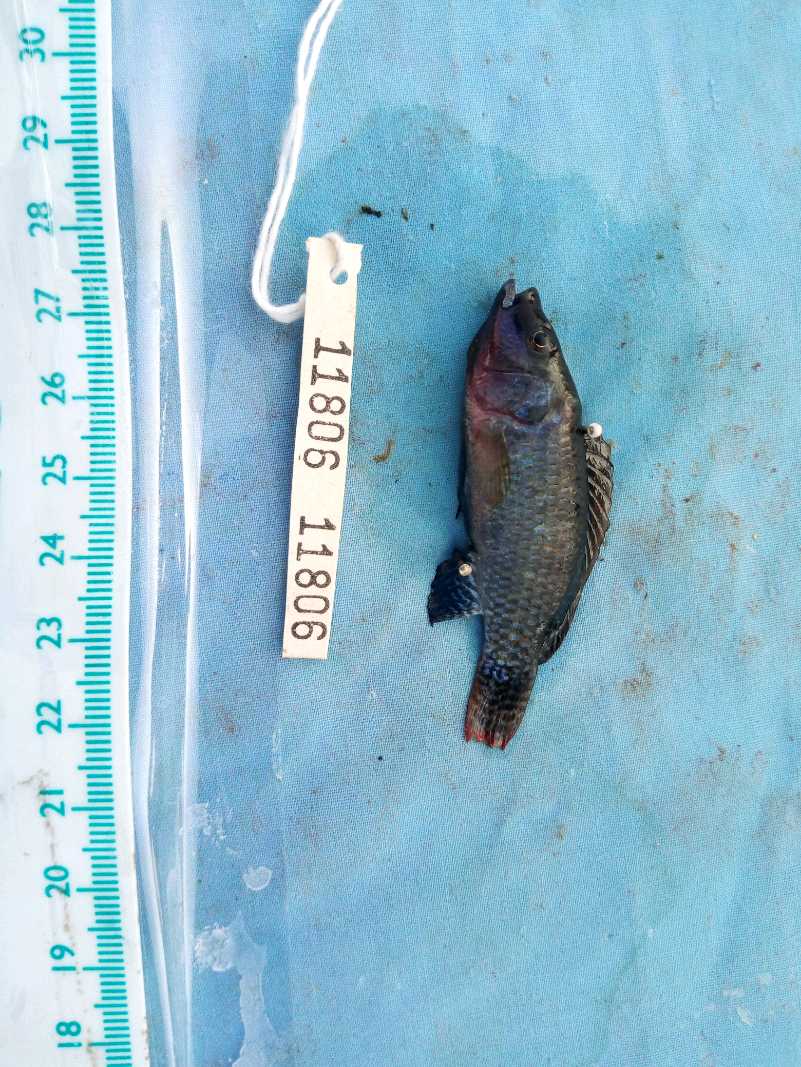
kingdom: Animalia
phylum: Chordata
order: Perciformes
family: Cichlidae
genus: Alcolapia
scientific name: Alcolapia grahami
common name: Lake magadi tilapia
